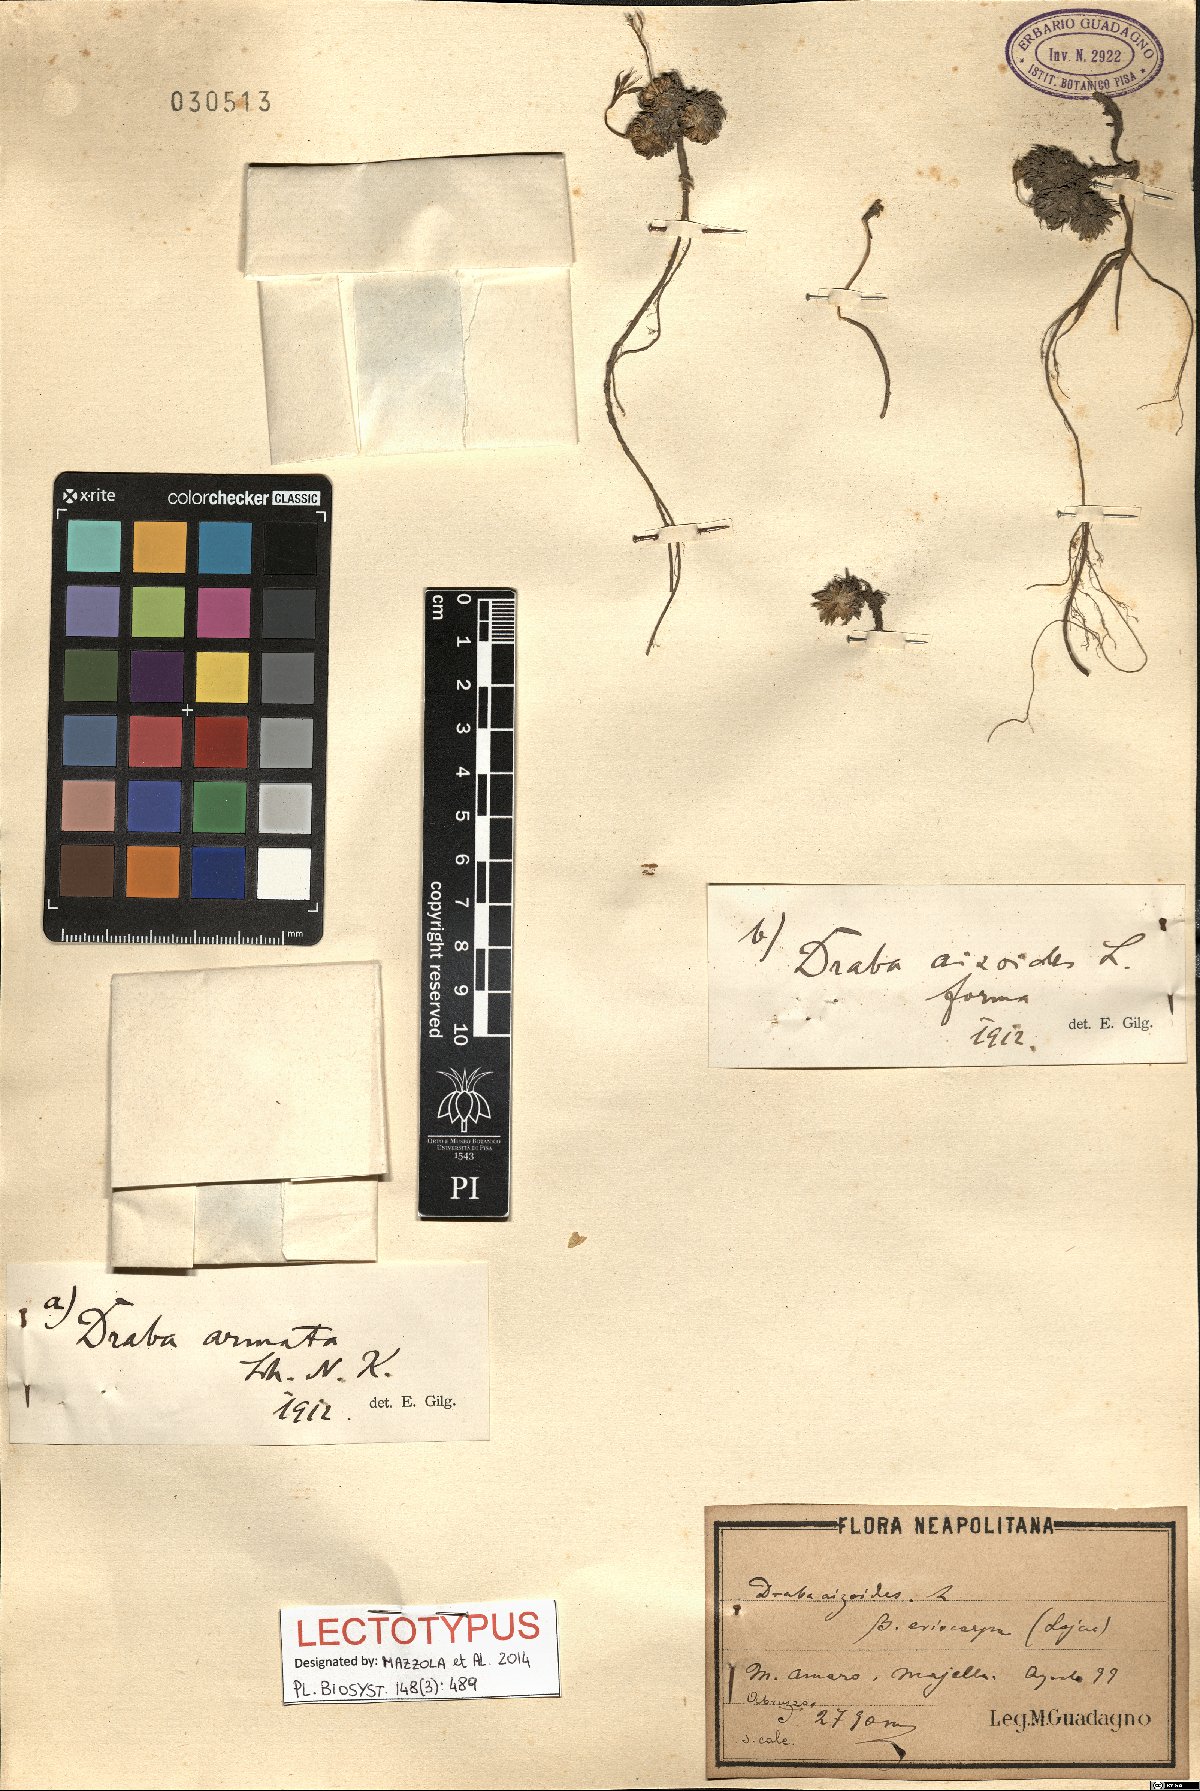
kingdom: Plantae
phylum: Tracheophyta
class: Magnoliopsida
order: Brassicales
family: Brassicaceae
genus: Draba
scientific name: Draba aspera
